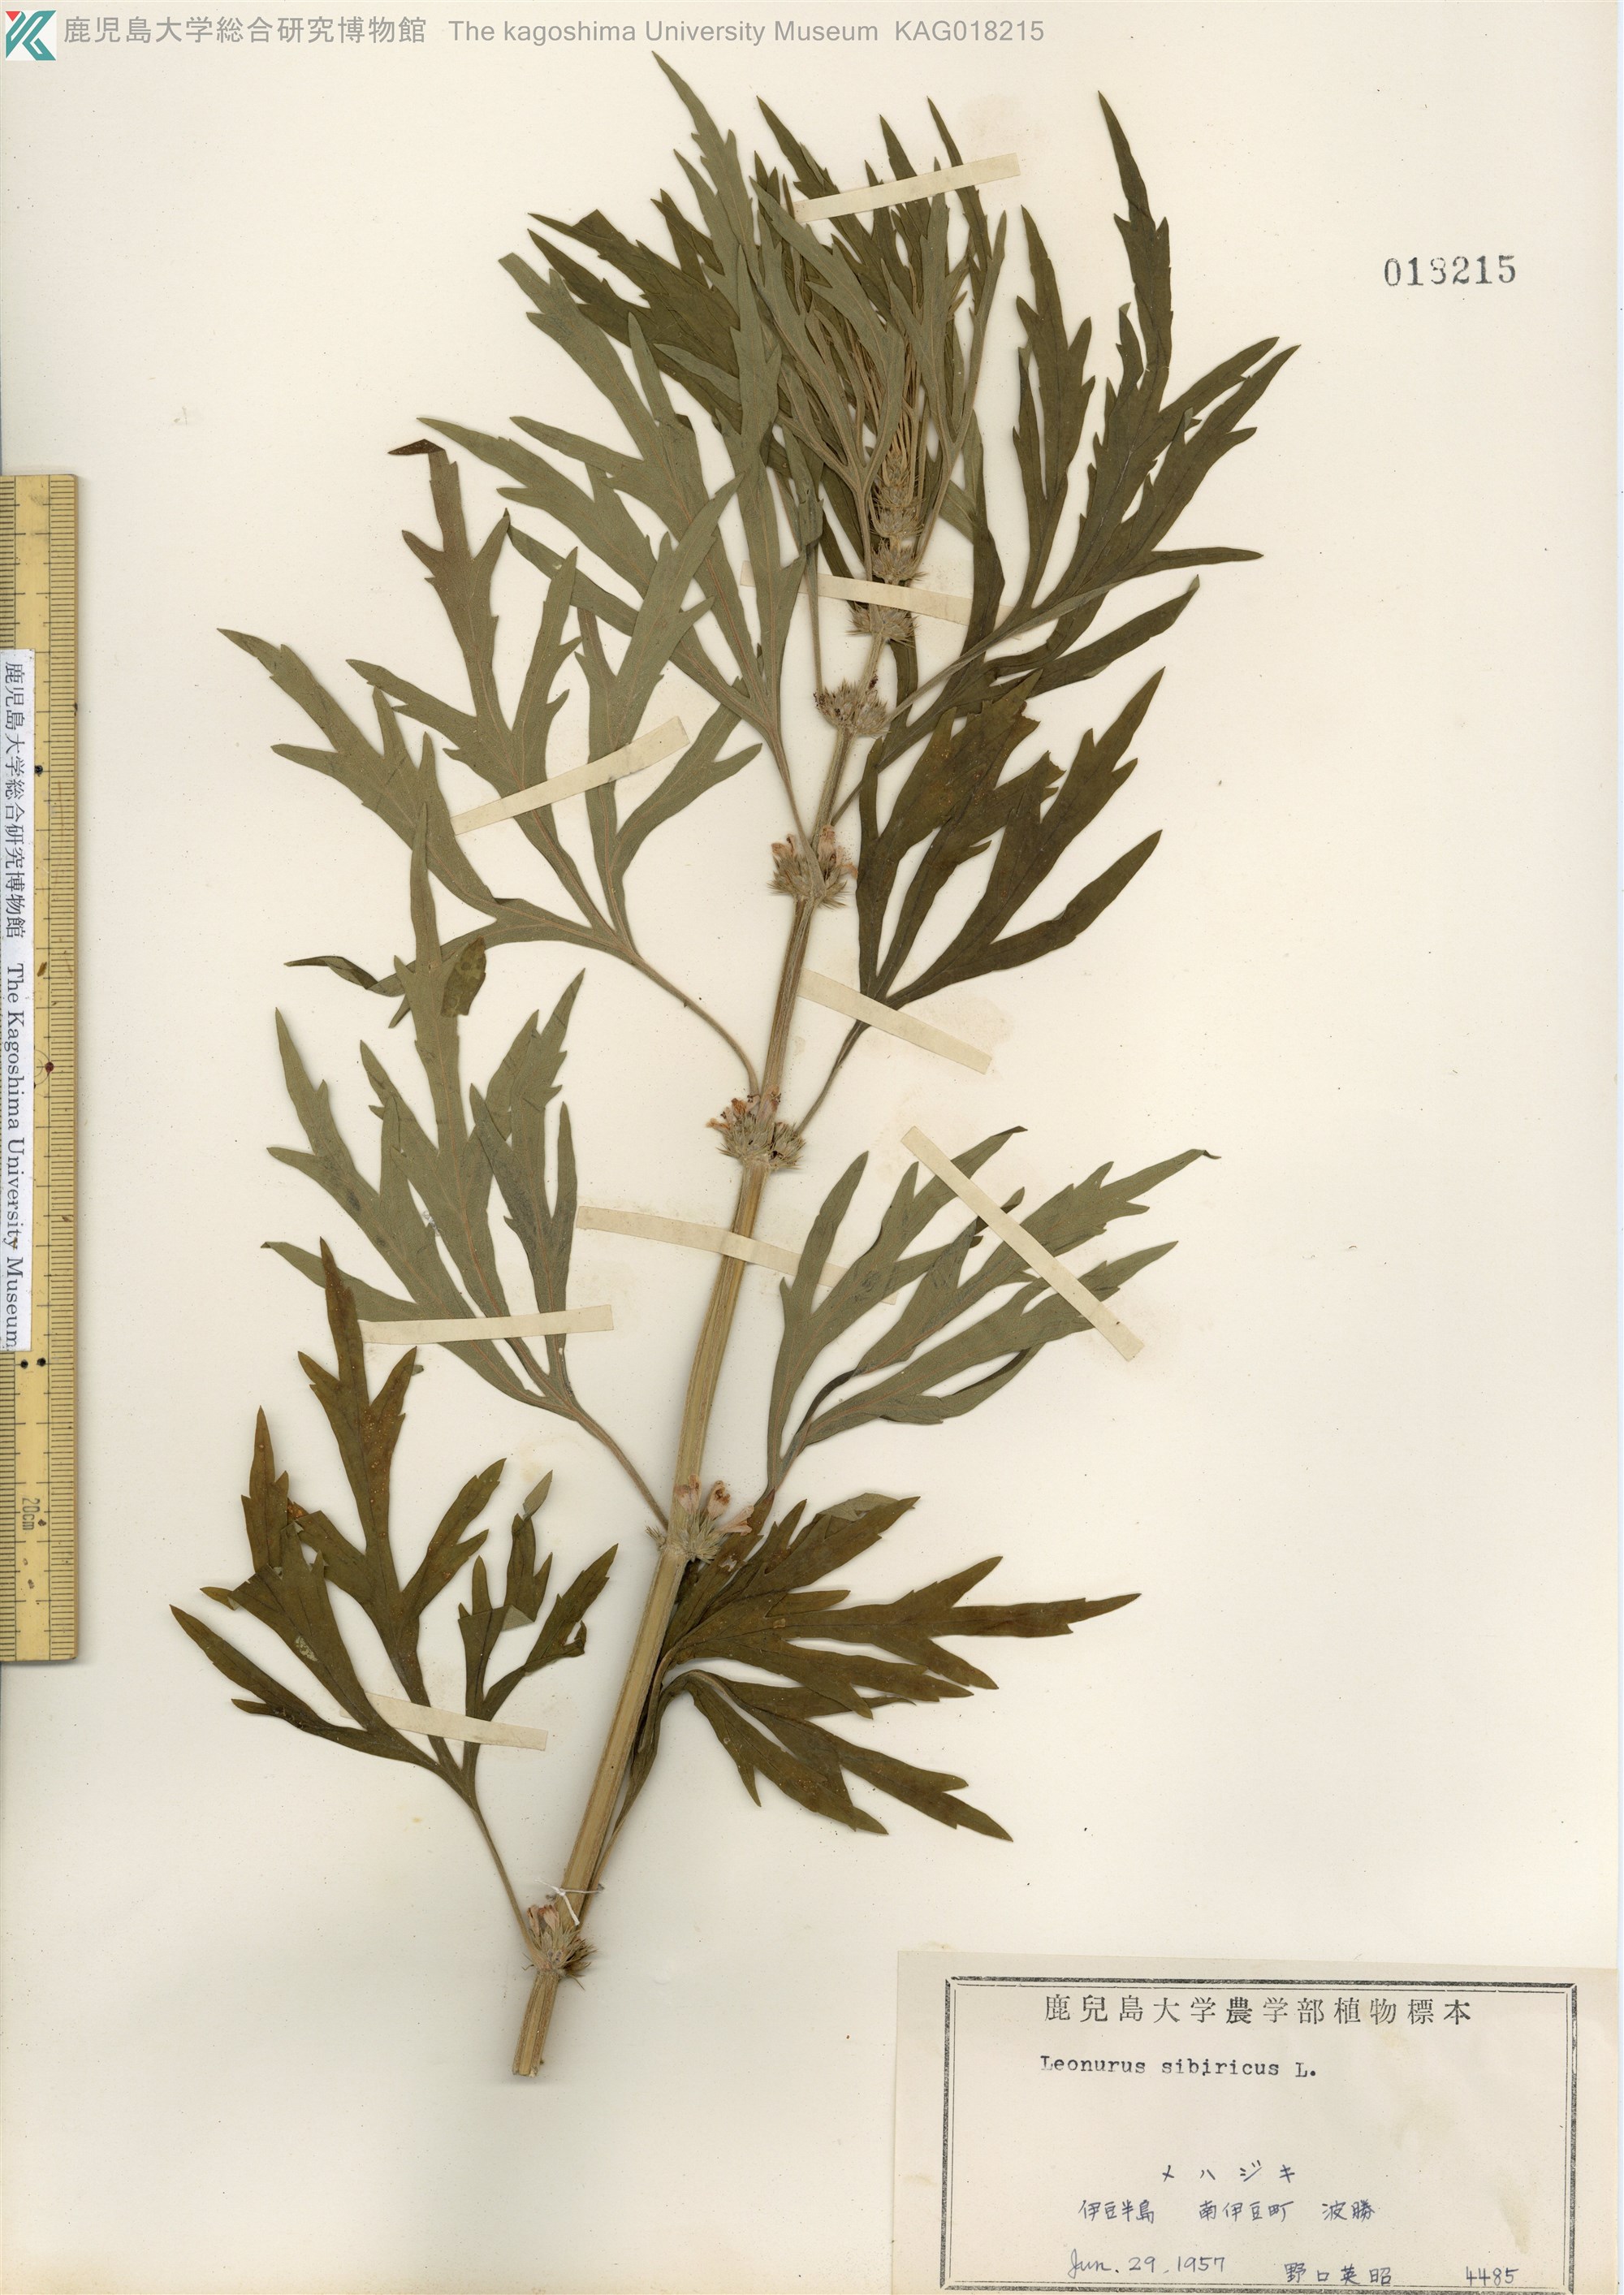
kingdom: Plantae
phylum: Tracheophyta
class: Magnoliopsida
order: Lamiales
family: Lamiaceae
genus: Leonurus
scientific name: Leonurus japonicus
